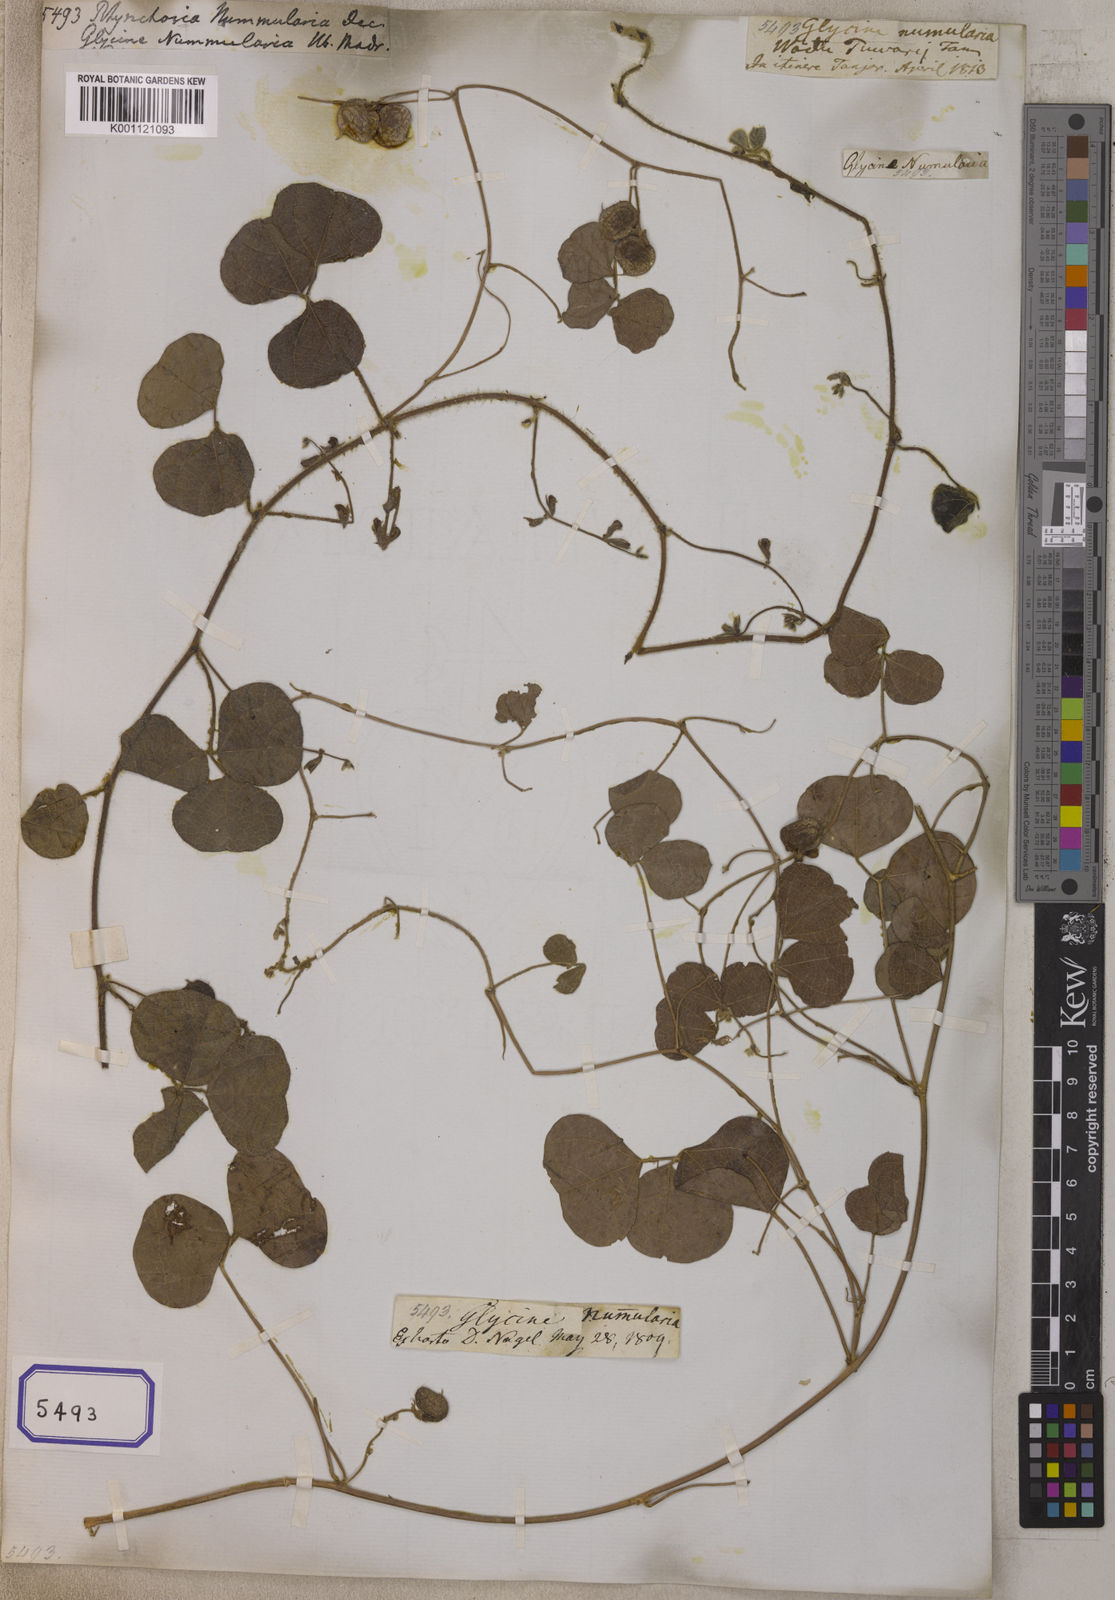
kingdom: Plantae
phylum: Tracheophyta
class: Magnoliopsida
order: Fabales
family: Fabaceae
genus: Rhynchosia
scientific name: Rhynchosia nummularia
